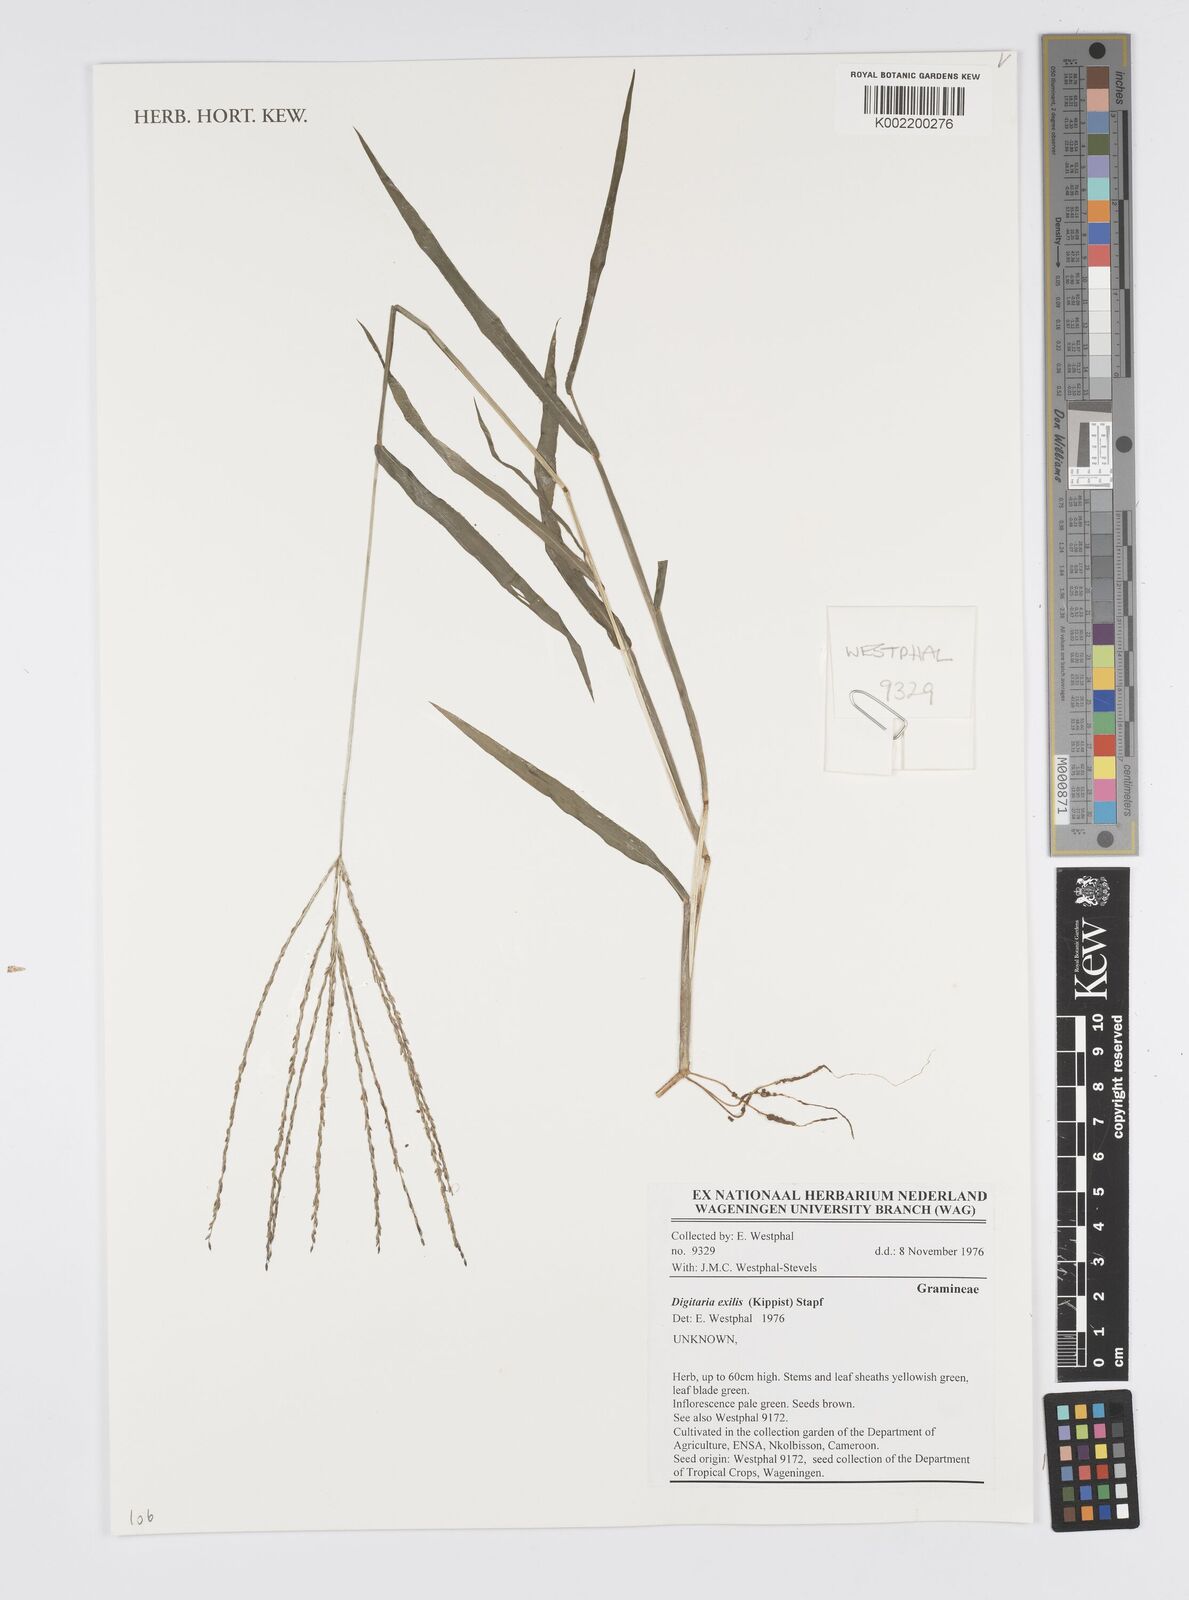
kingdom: Plantae
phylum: Tracheophyta
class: Liliopsida
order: Poales
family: Poaceae
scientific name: Poaceae
